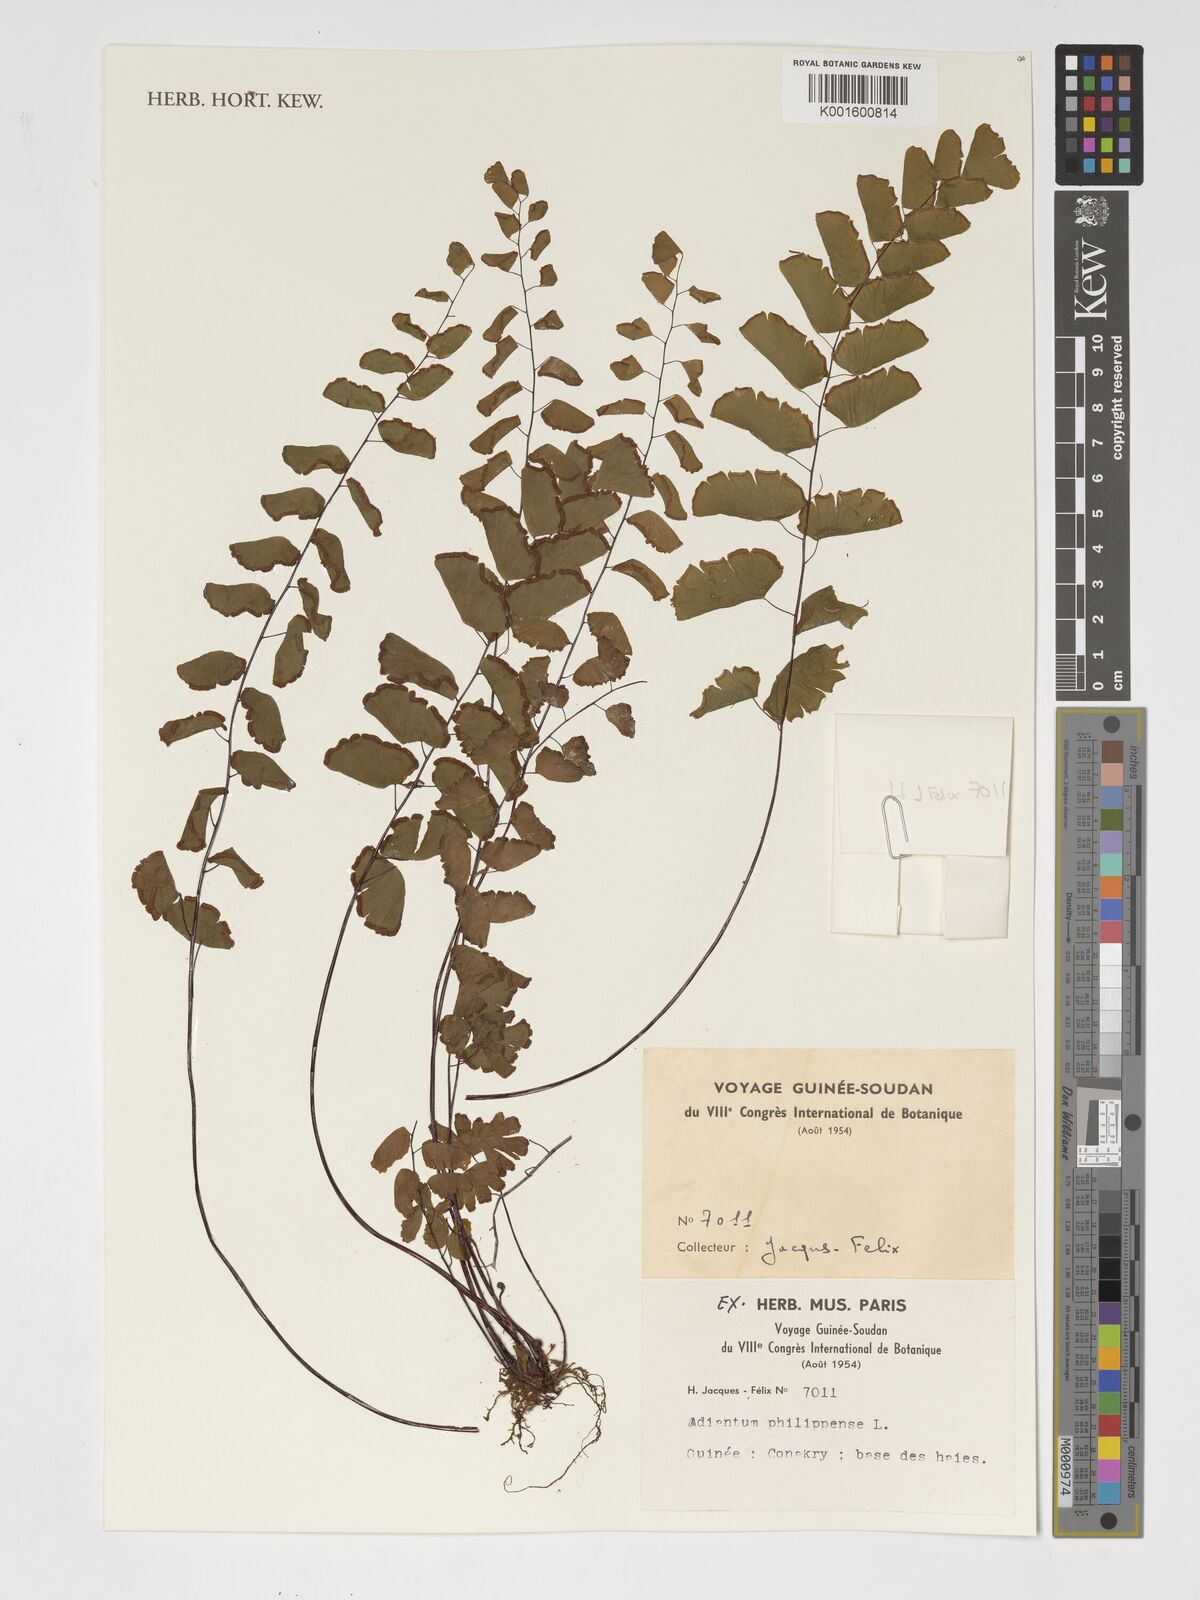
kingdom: Plantae
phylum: Tracheophyta
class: Polypodiopsida
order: Polypodiales
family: Pteridaceae
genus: Adiantum
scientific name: Adiantum philippense
